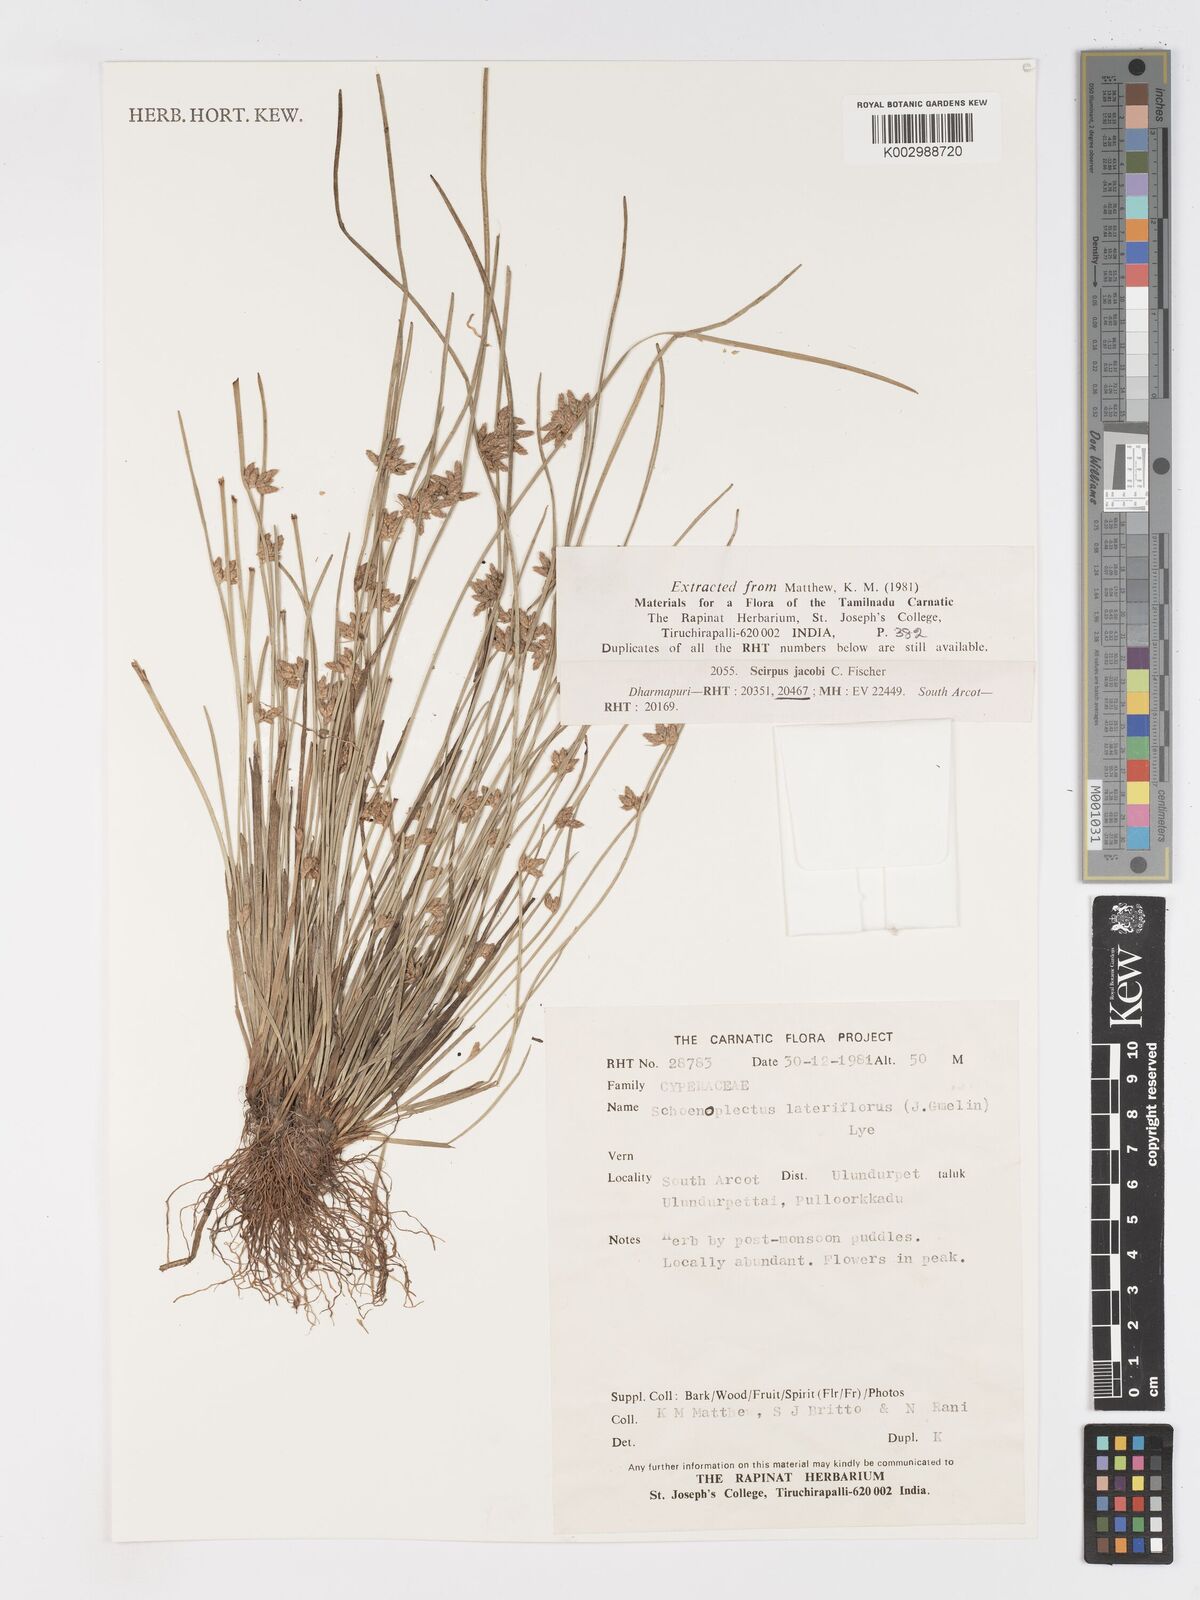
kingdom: Plantae
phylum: Tracheophyta
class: Liliopsida
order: Poales
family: Cyperaceae
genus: Schoenoplectiella
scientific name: Schoenoplectiella lateriflora
